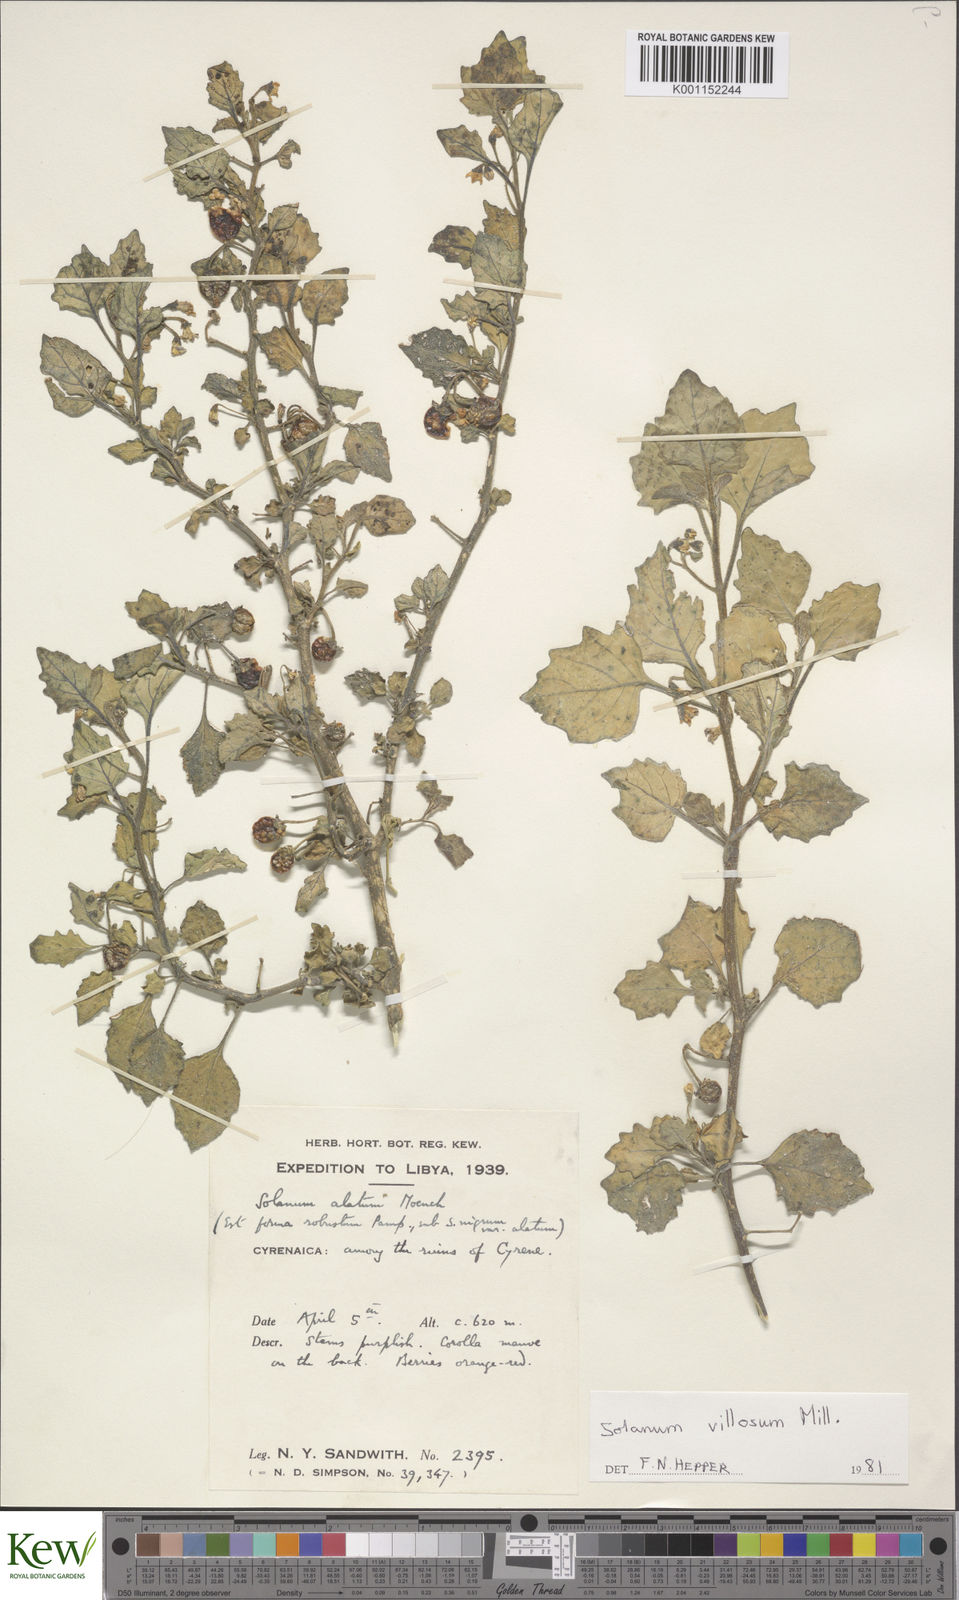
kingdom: Plantae
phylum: Tracheophyta
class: Magnoliopsida
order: Solanales
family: Solanaceae
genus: Solanum
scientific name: Solanum villosum
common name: Red nightshade
